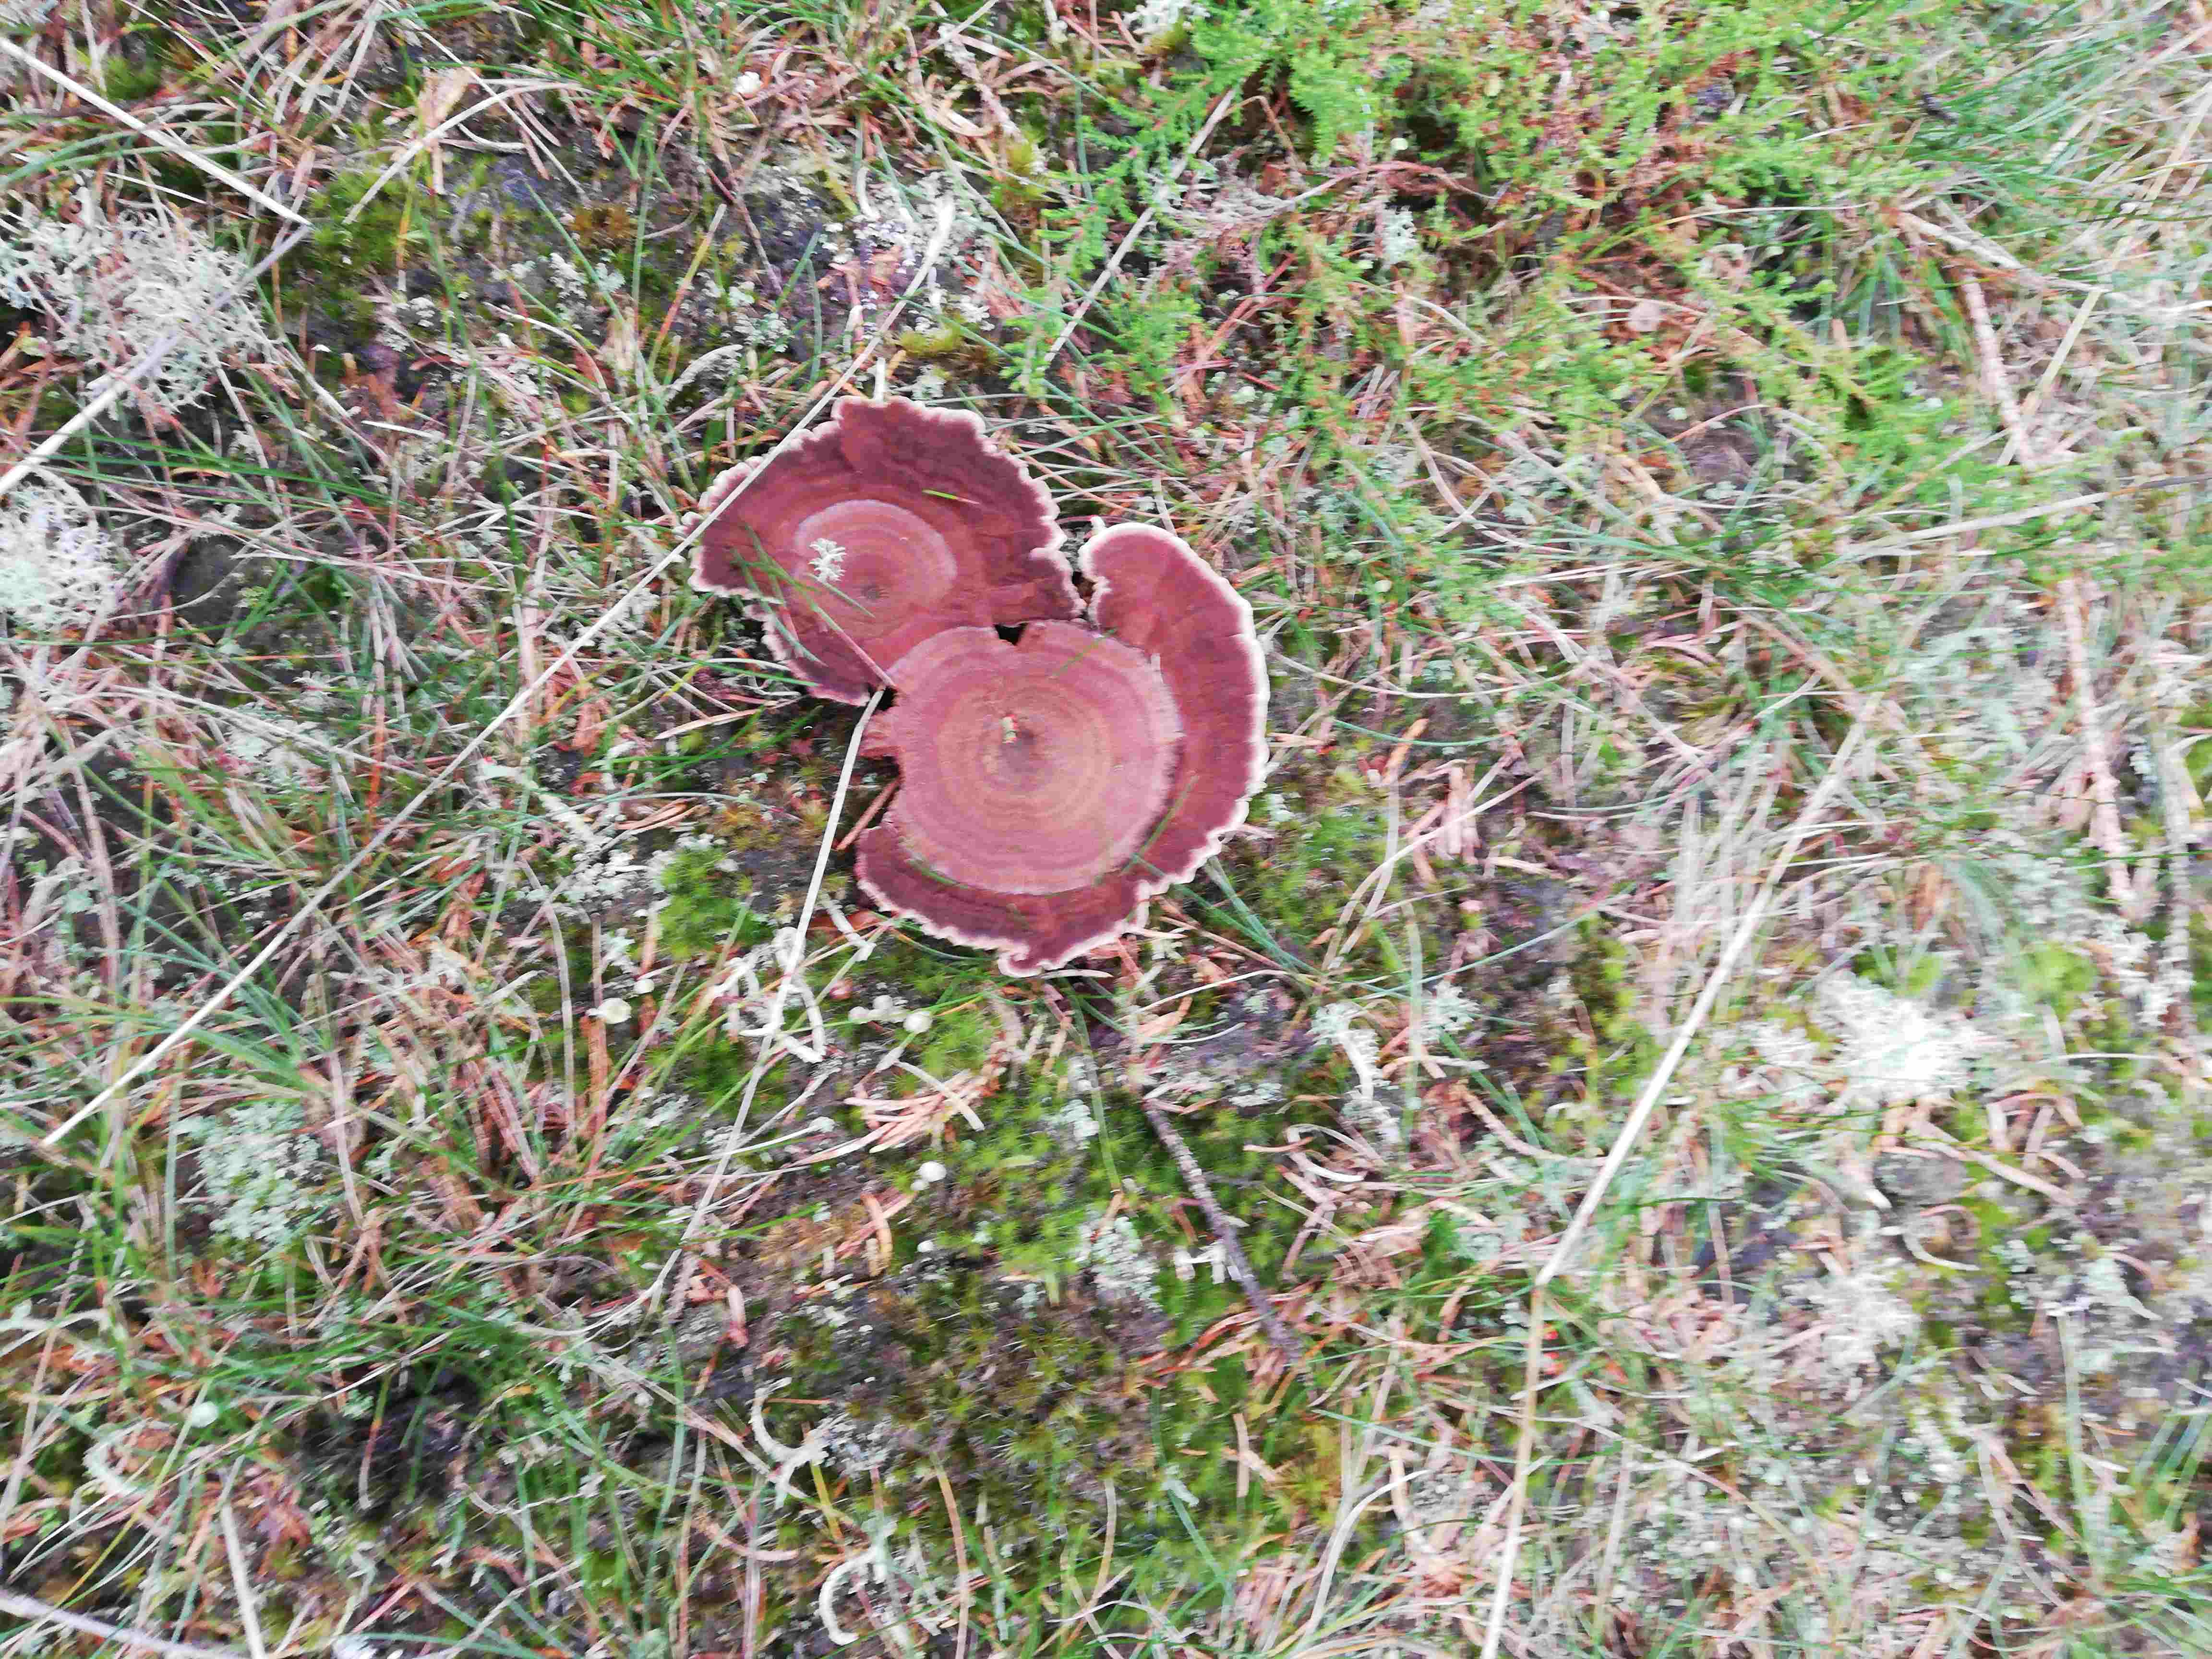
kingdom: Fungi
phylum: Basidiomycota
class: Agaricomycetes
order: Hymenochaetales
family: Hymenochaetaceae
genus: Coltricia
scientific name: Coltricia perennis
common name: almindelig sandporesvamp
